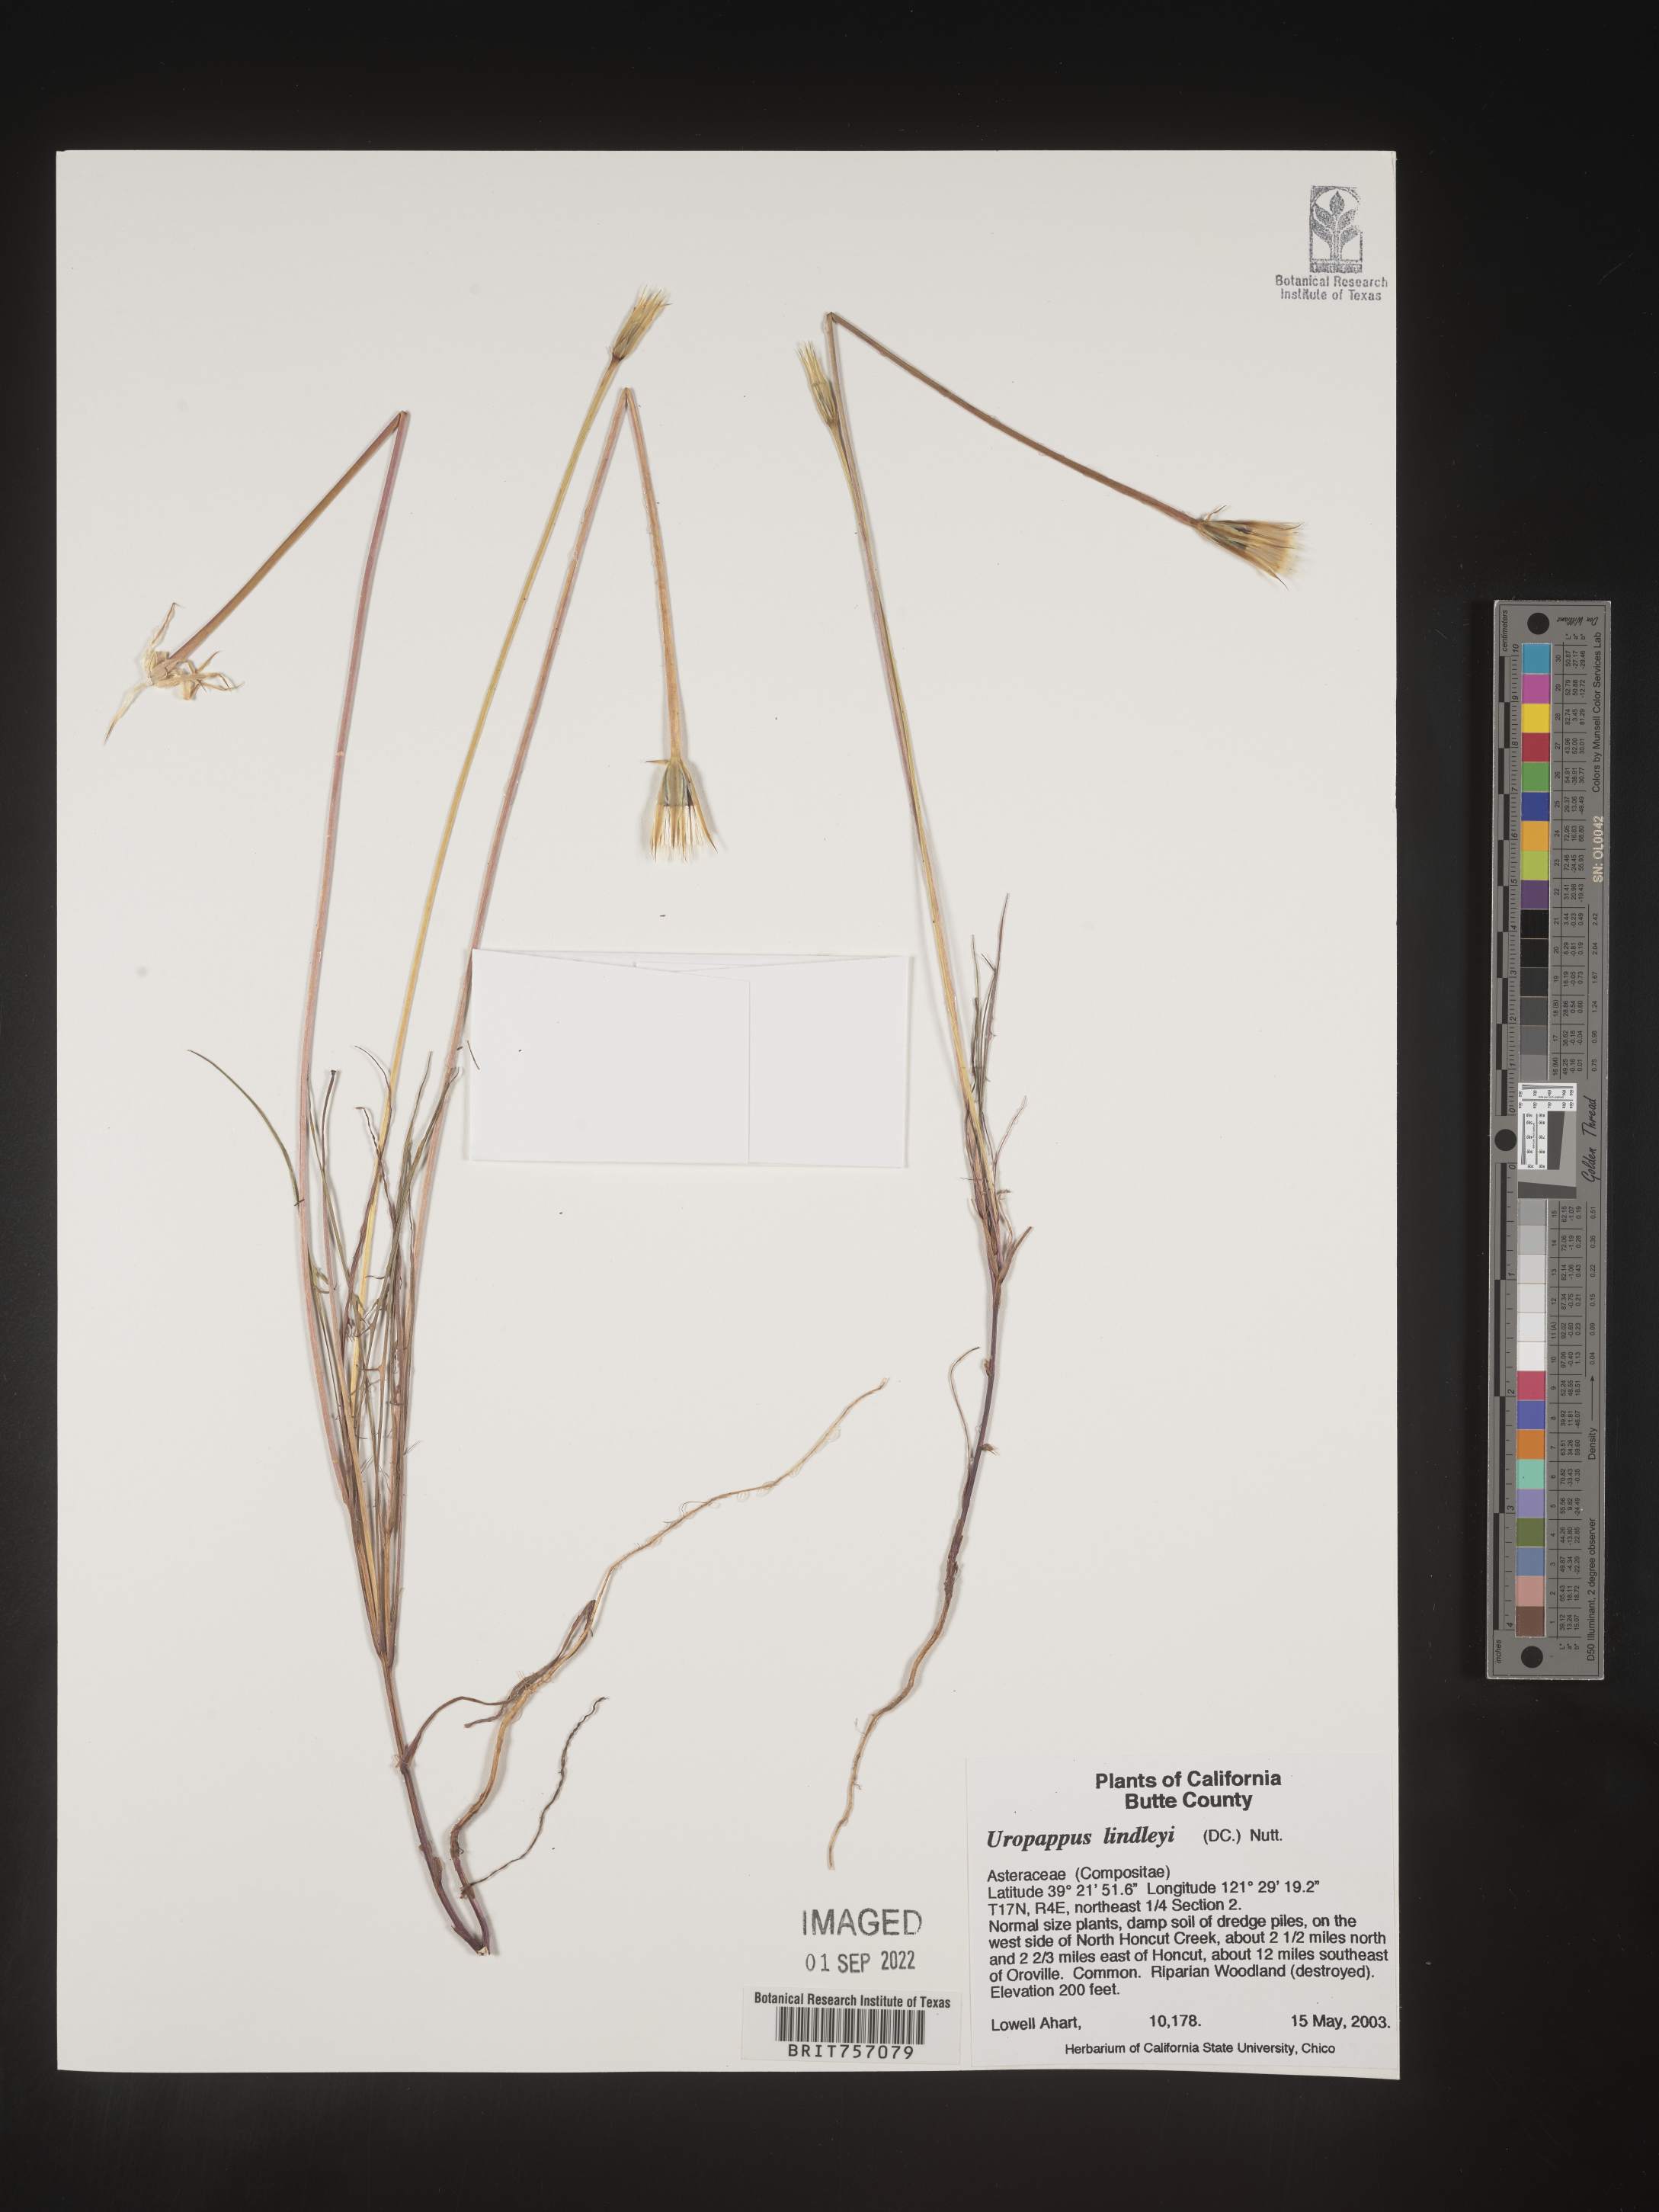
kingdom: Plantae
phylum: Tracheophyta
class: Magnoliopsida
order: Asterales
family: Asteraceae
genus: Microseris
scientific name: Microseris
